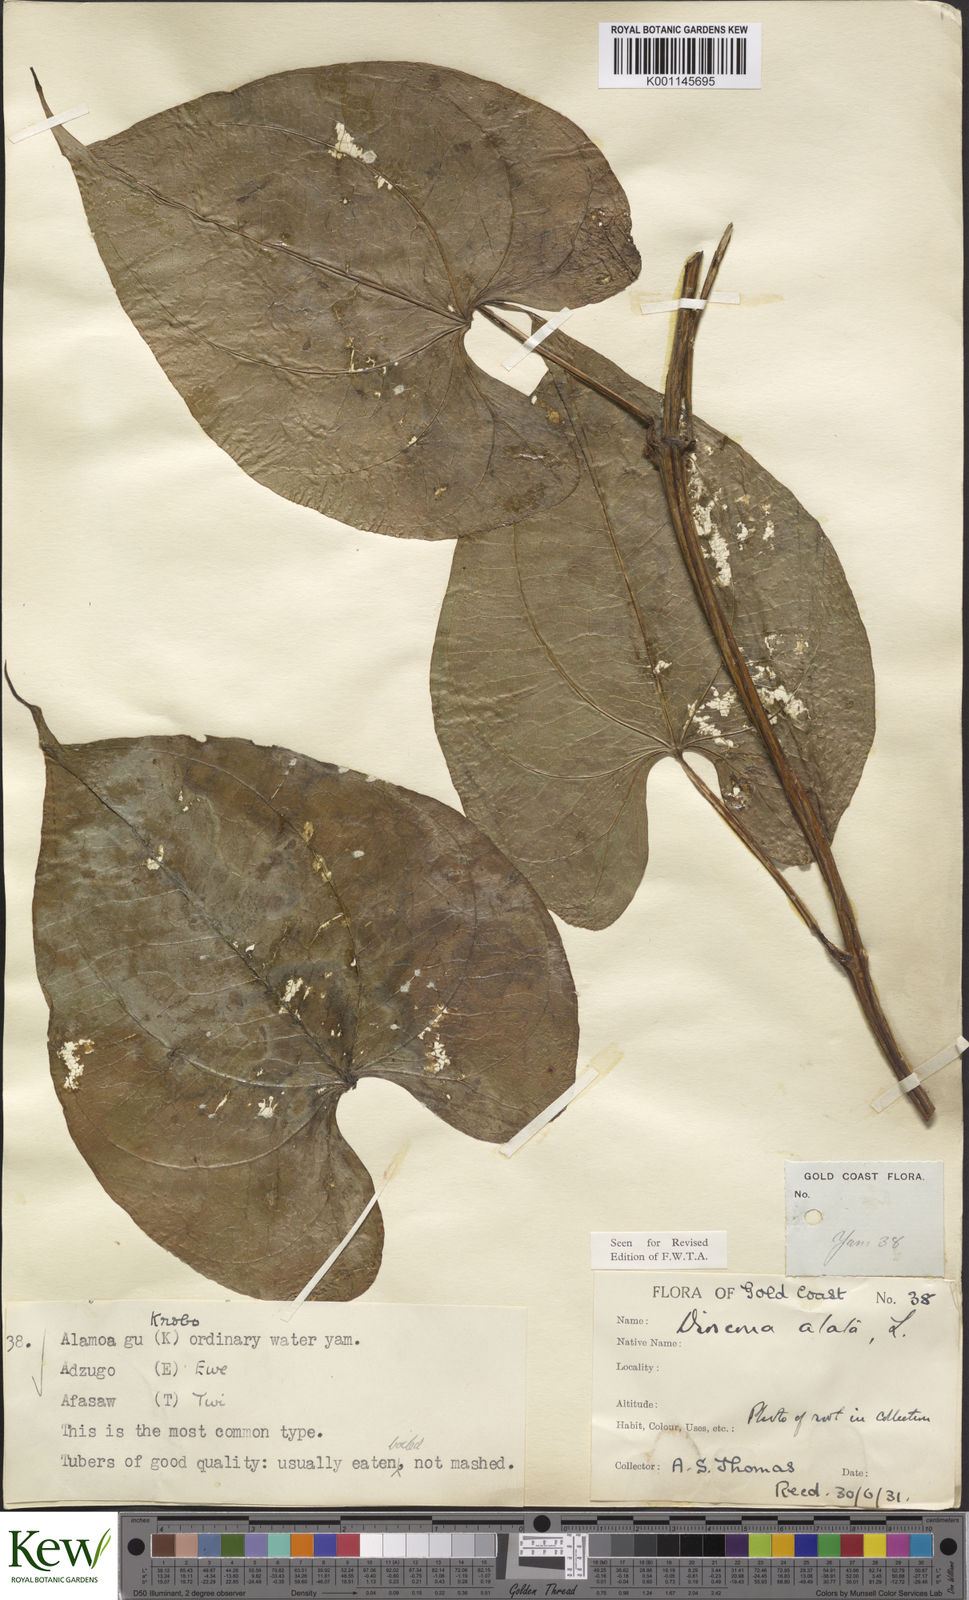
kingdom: Plantae
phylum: Tracheophyta
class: Liliopsida
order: Dioscoreales
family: Dioscoreaceae
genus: Dioscorea
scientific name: Dioscorea alata
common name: Water yam
